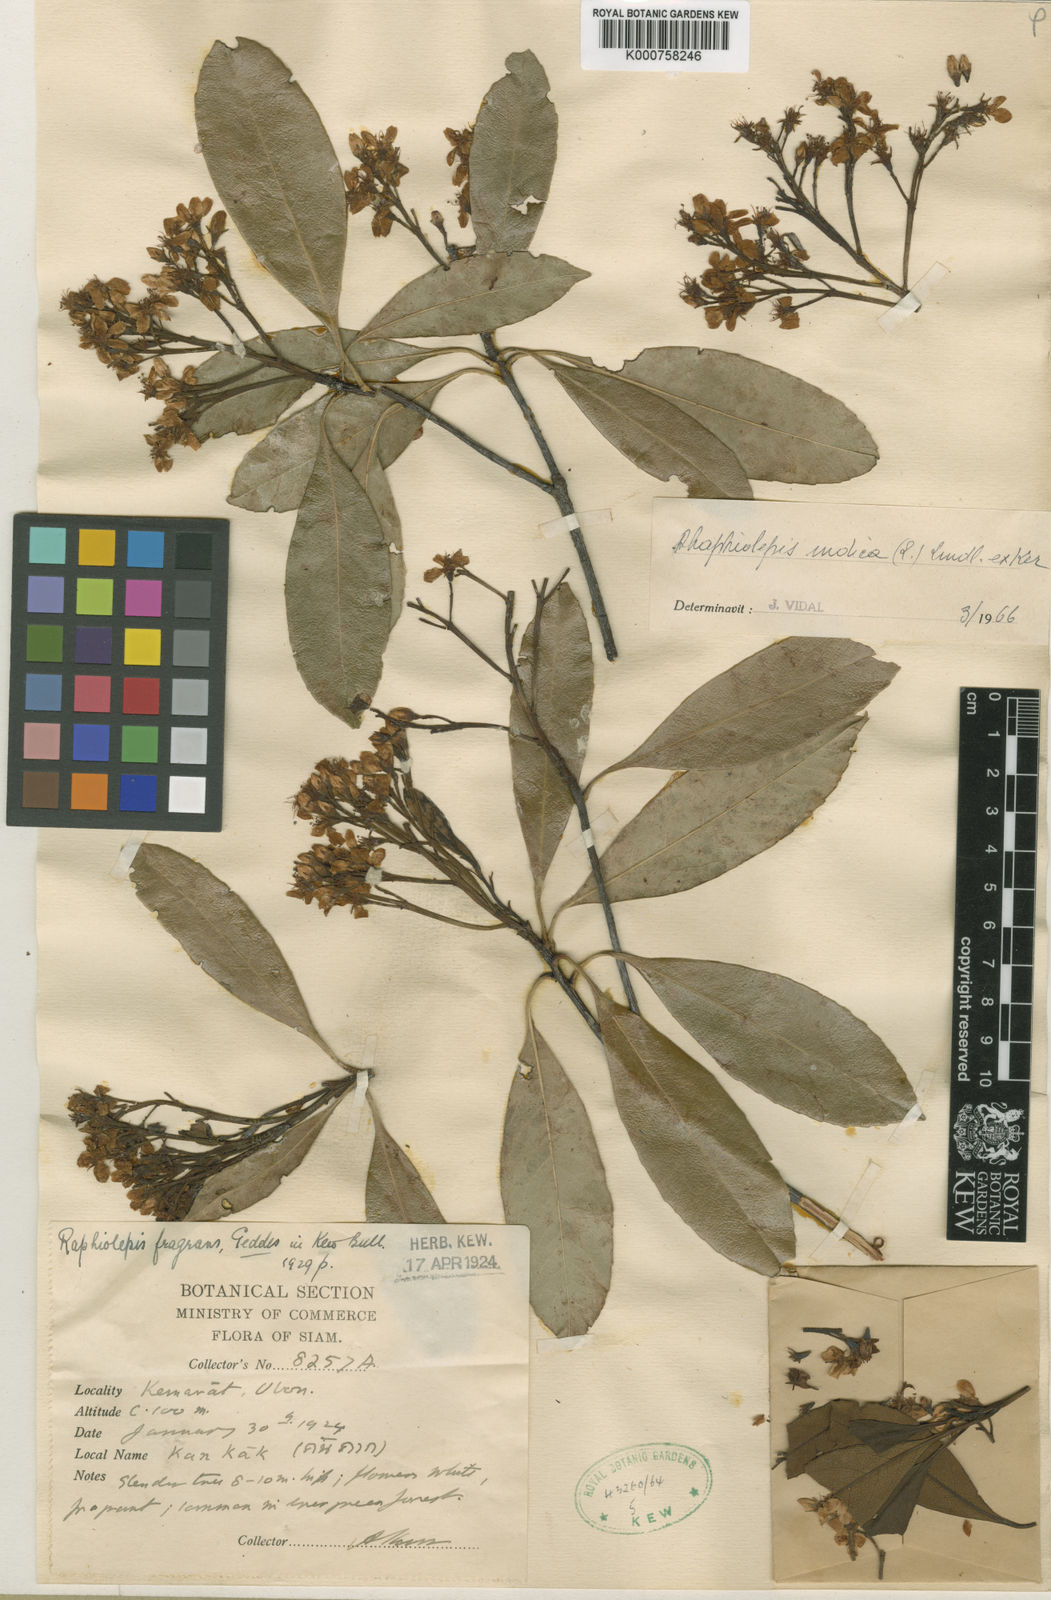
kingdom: Plantae
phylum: Tracheophyta
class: Magnoliopsida
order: Rosales
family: Rosaceae
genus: Rhaphiolepis
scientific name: Rhaphiolepis indica
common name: India-hawthorn
